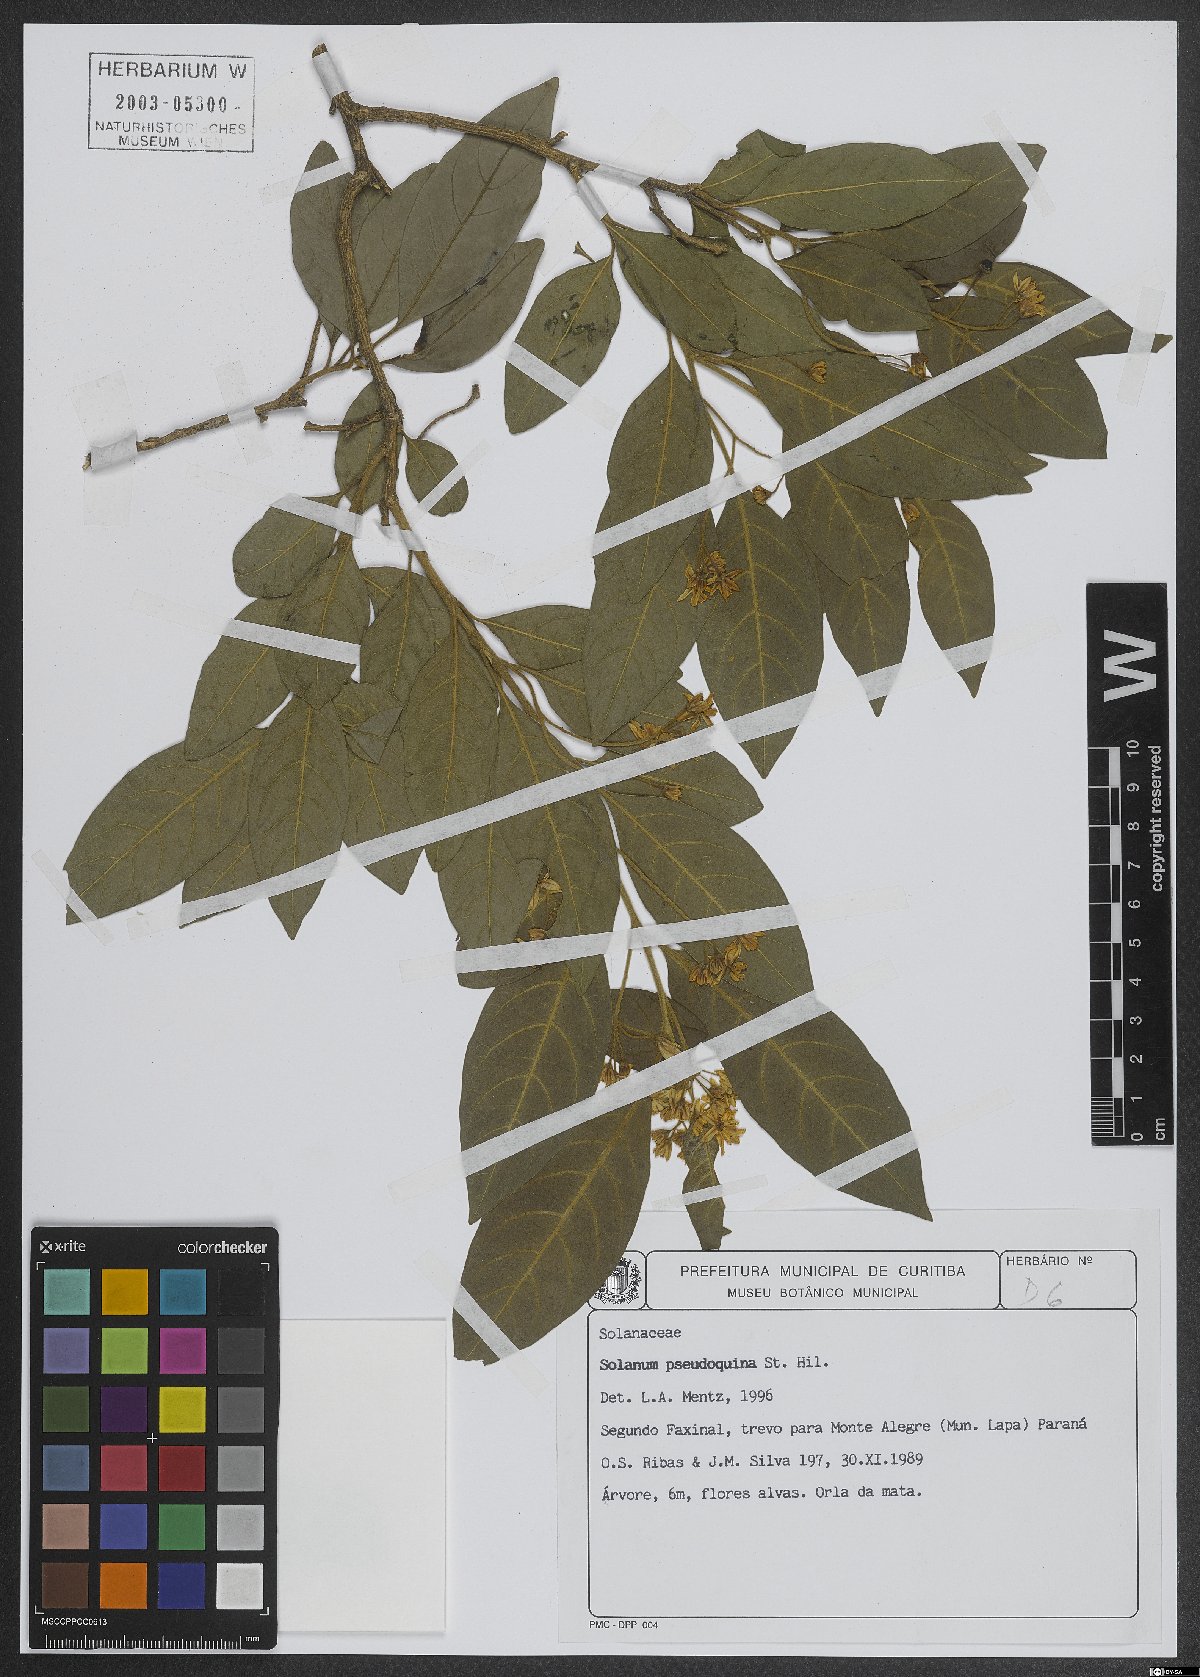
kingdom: Plantae
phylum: Tracheophyta
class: Magnoliopsida
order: Solanales
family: Solanaceae
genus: Solanum
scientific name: Solanum pseudoquina
